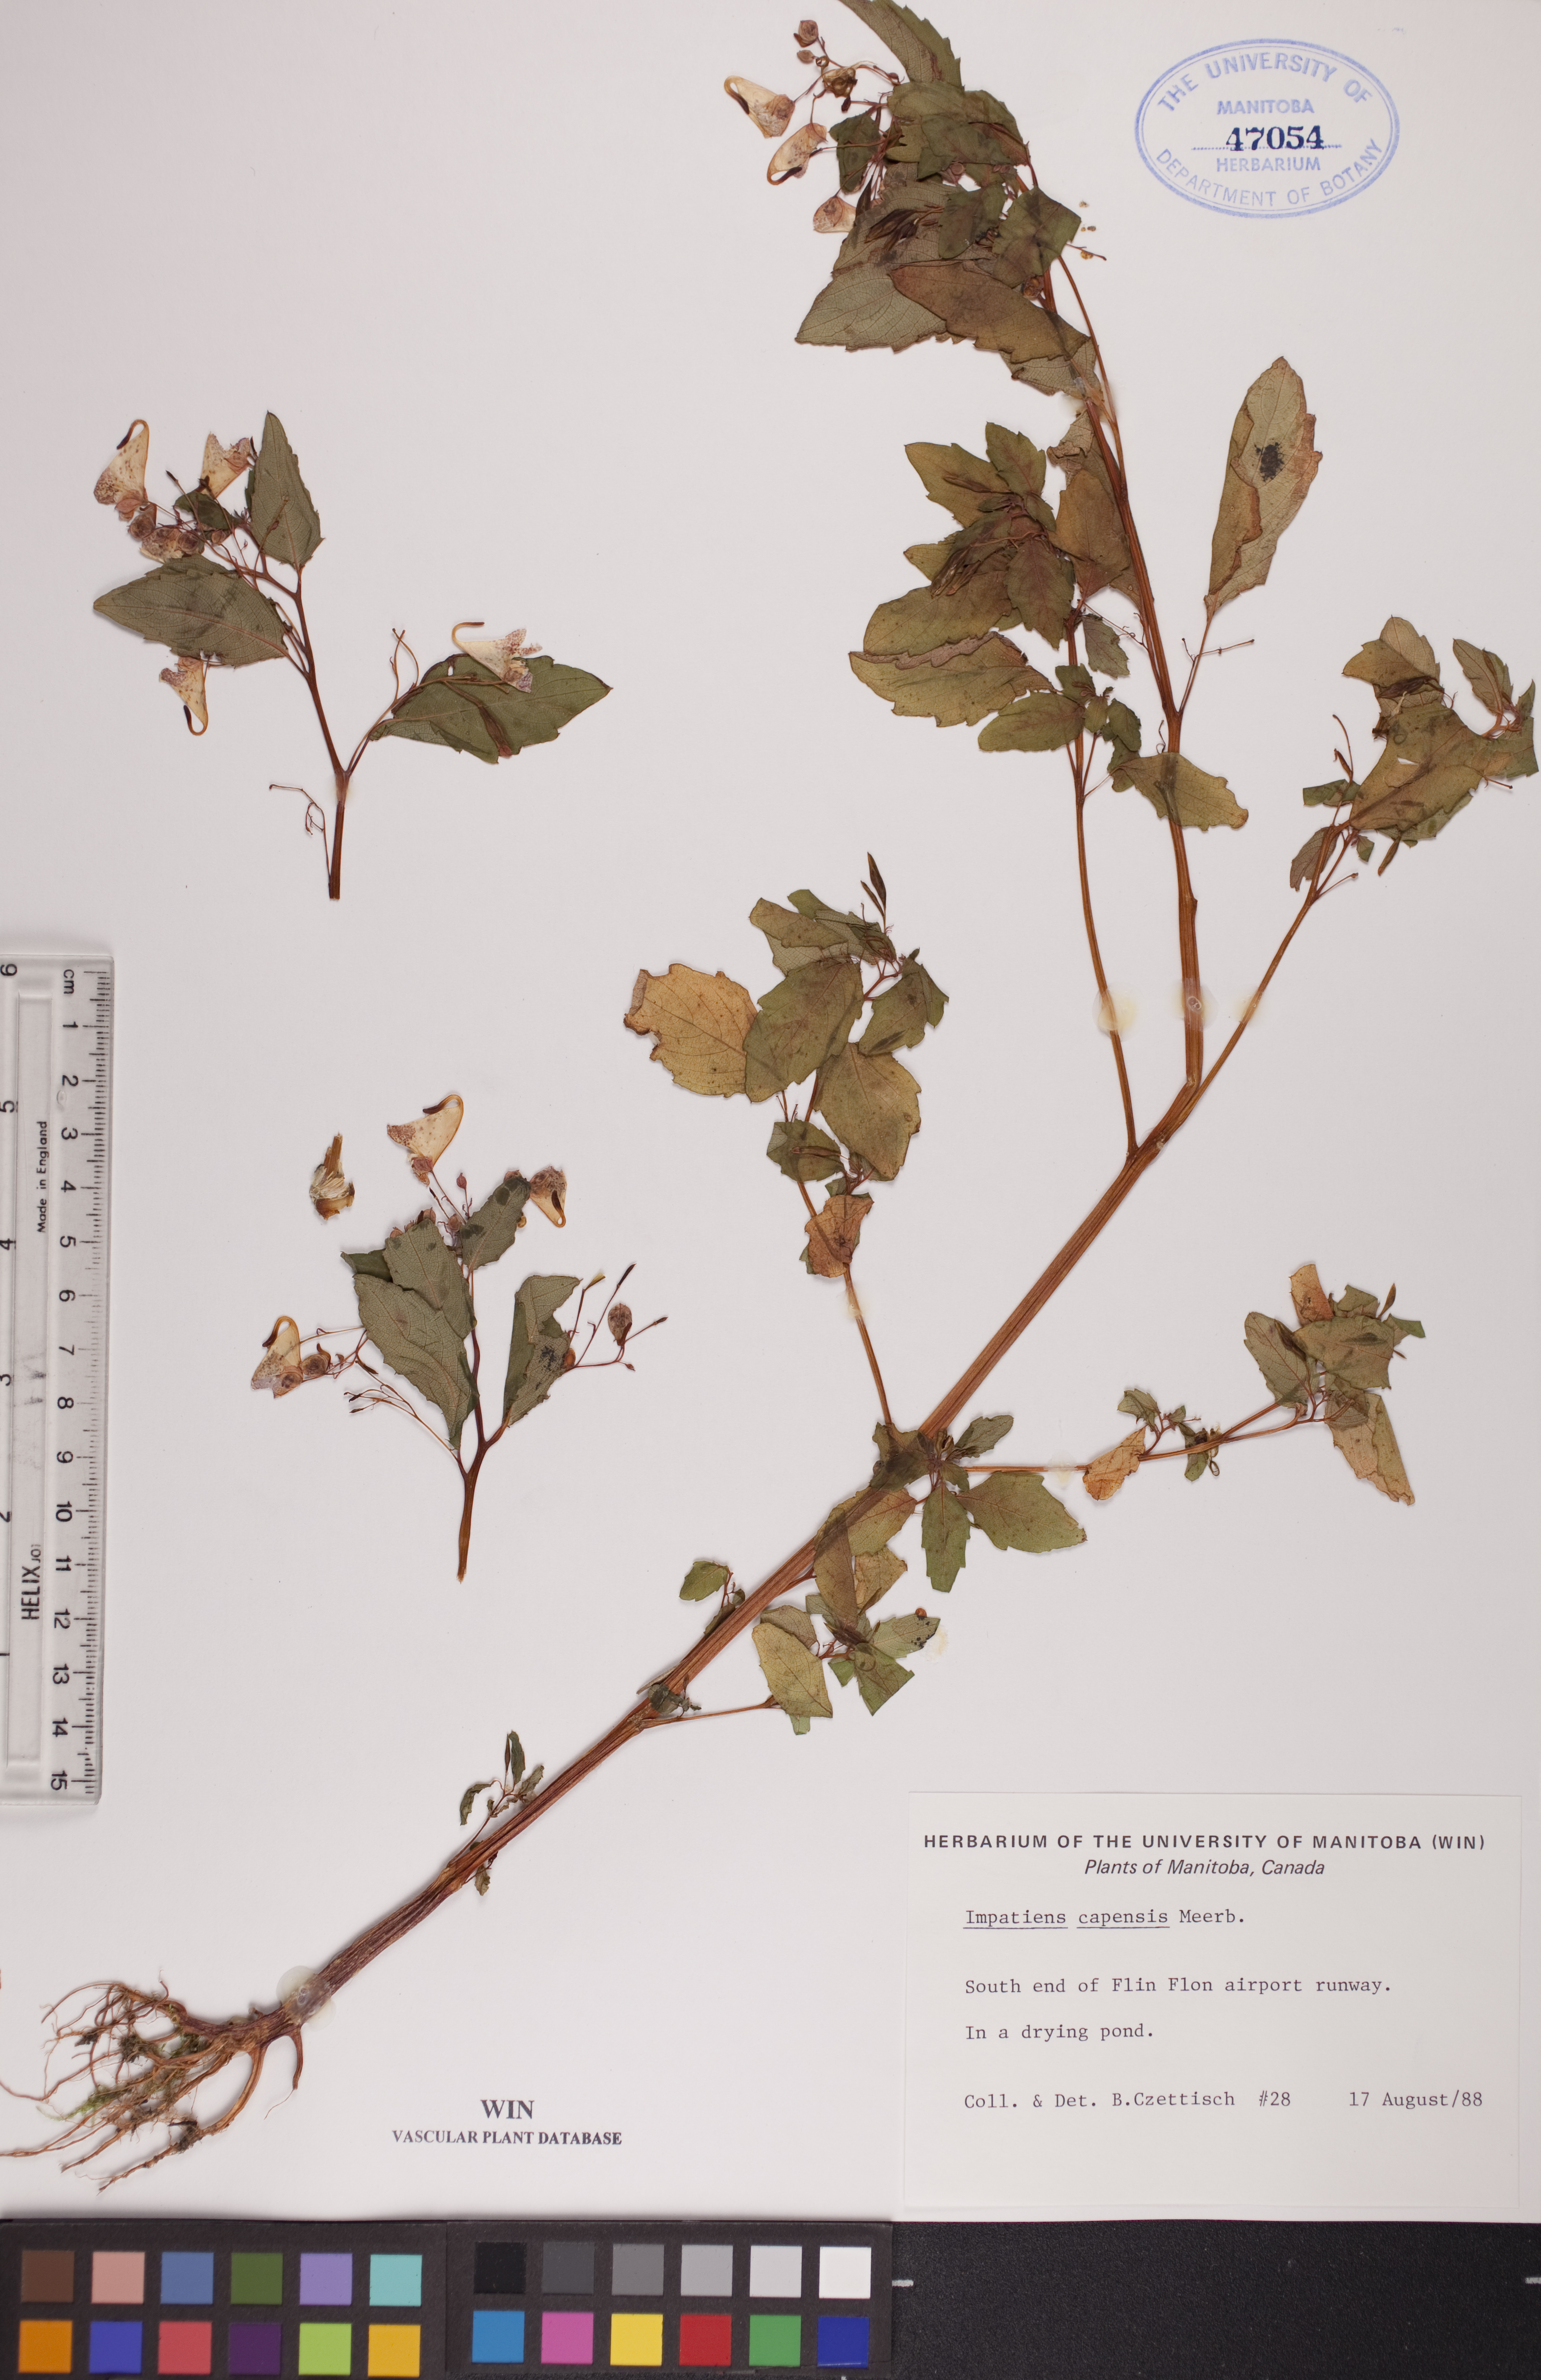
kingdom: Plantae
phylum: Tracheophyta
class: Magnoliopsida
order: Ericales
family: Balsaminaceae
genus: Impatiens
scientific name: Impatiens capensis
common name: Orange balsam
